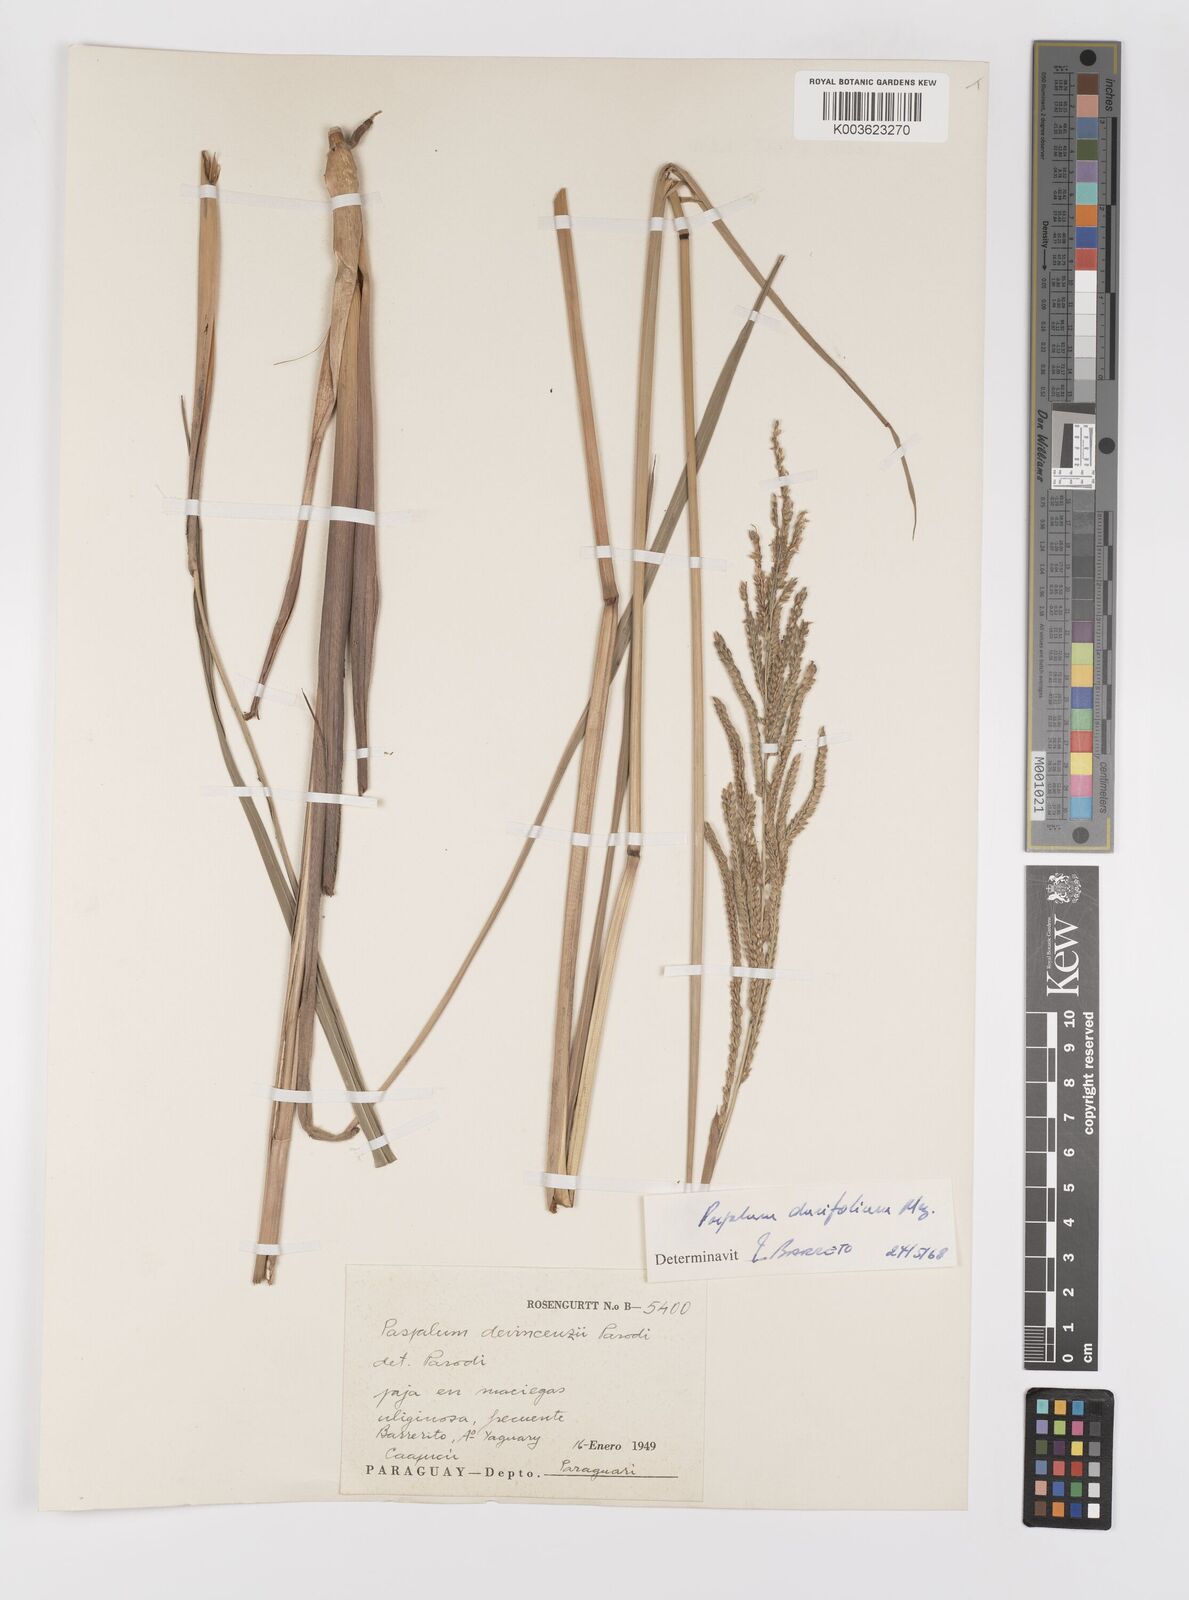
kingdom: Plantae
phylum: Tracheophyta
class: Liliopsida
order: Poales
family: Poaceae
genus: Paspalum
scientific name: Paspalum durifolium
